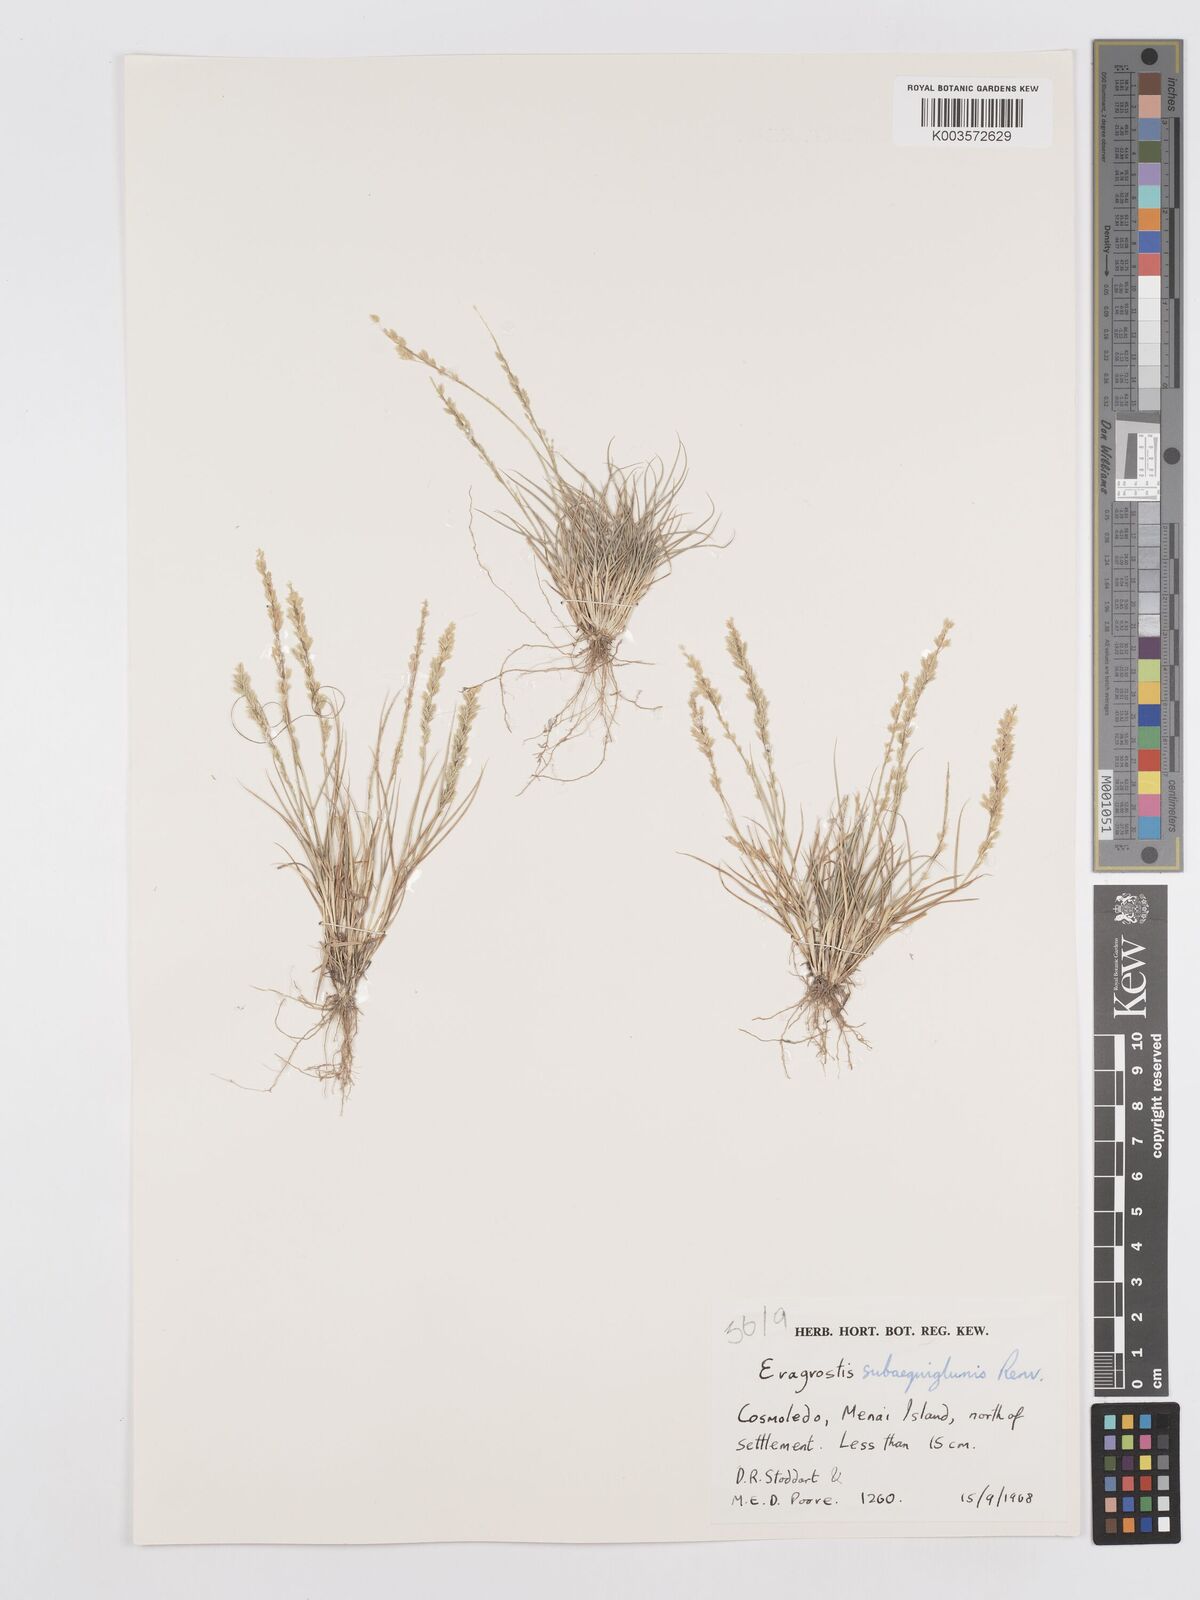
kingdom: Plantae
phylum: Tracheophyta
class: Liliopsida
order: Poales
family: Poaceae
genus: Eragrostis
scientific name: Eragrostis subaequiglumis
